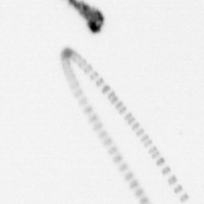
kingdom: Chromista
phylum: Ochrophyta
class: Bacillariophyceae
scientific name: Bacillariophyceae
